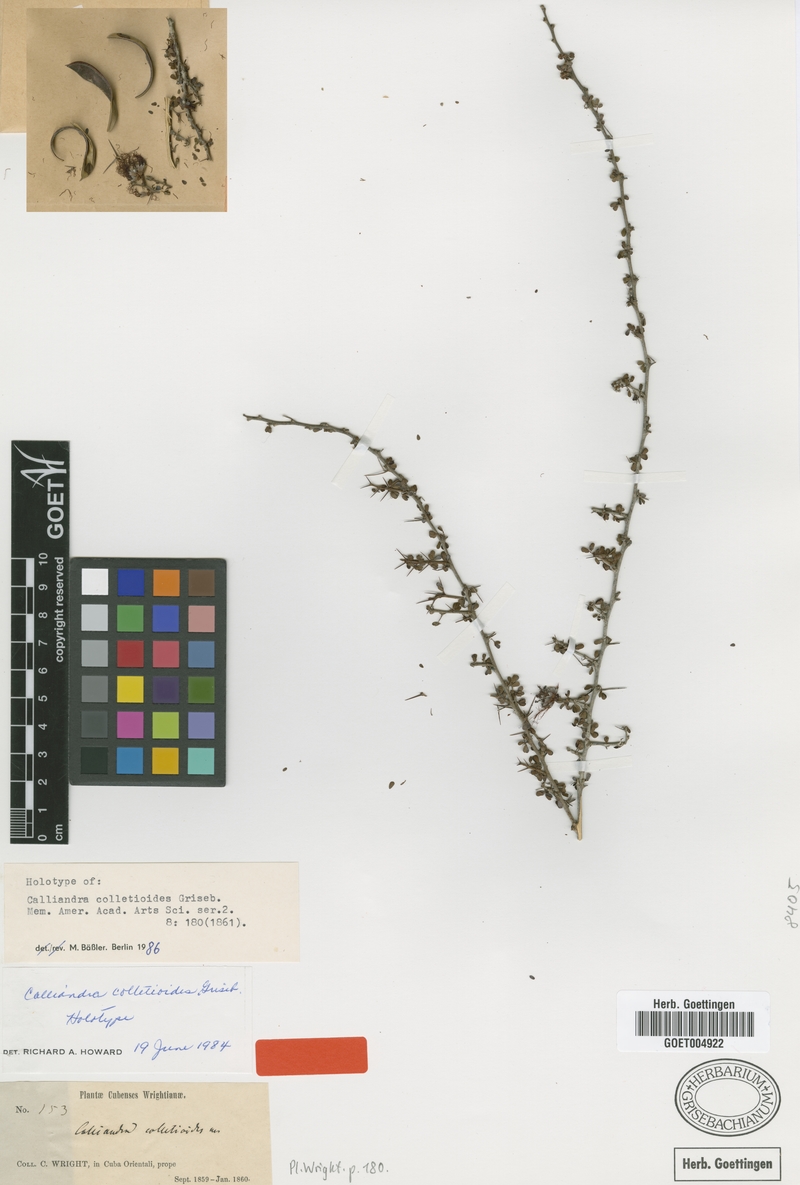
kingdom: Plantae
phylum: Tracheophyta
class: Magnoliopsida
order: Fabales
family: Fabaceae
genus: Calliandra
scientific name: Calliandra haematomma
